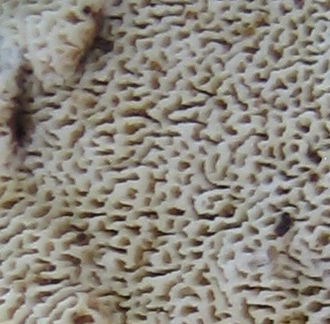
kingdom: Fungi
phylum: Basidiomycota
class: Agaricomycetes
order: Hymenochaetales
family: Schizoporaceae
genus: Xylodon
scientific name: Xylodon subtropicus
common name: labyrint-tandsvamp
